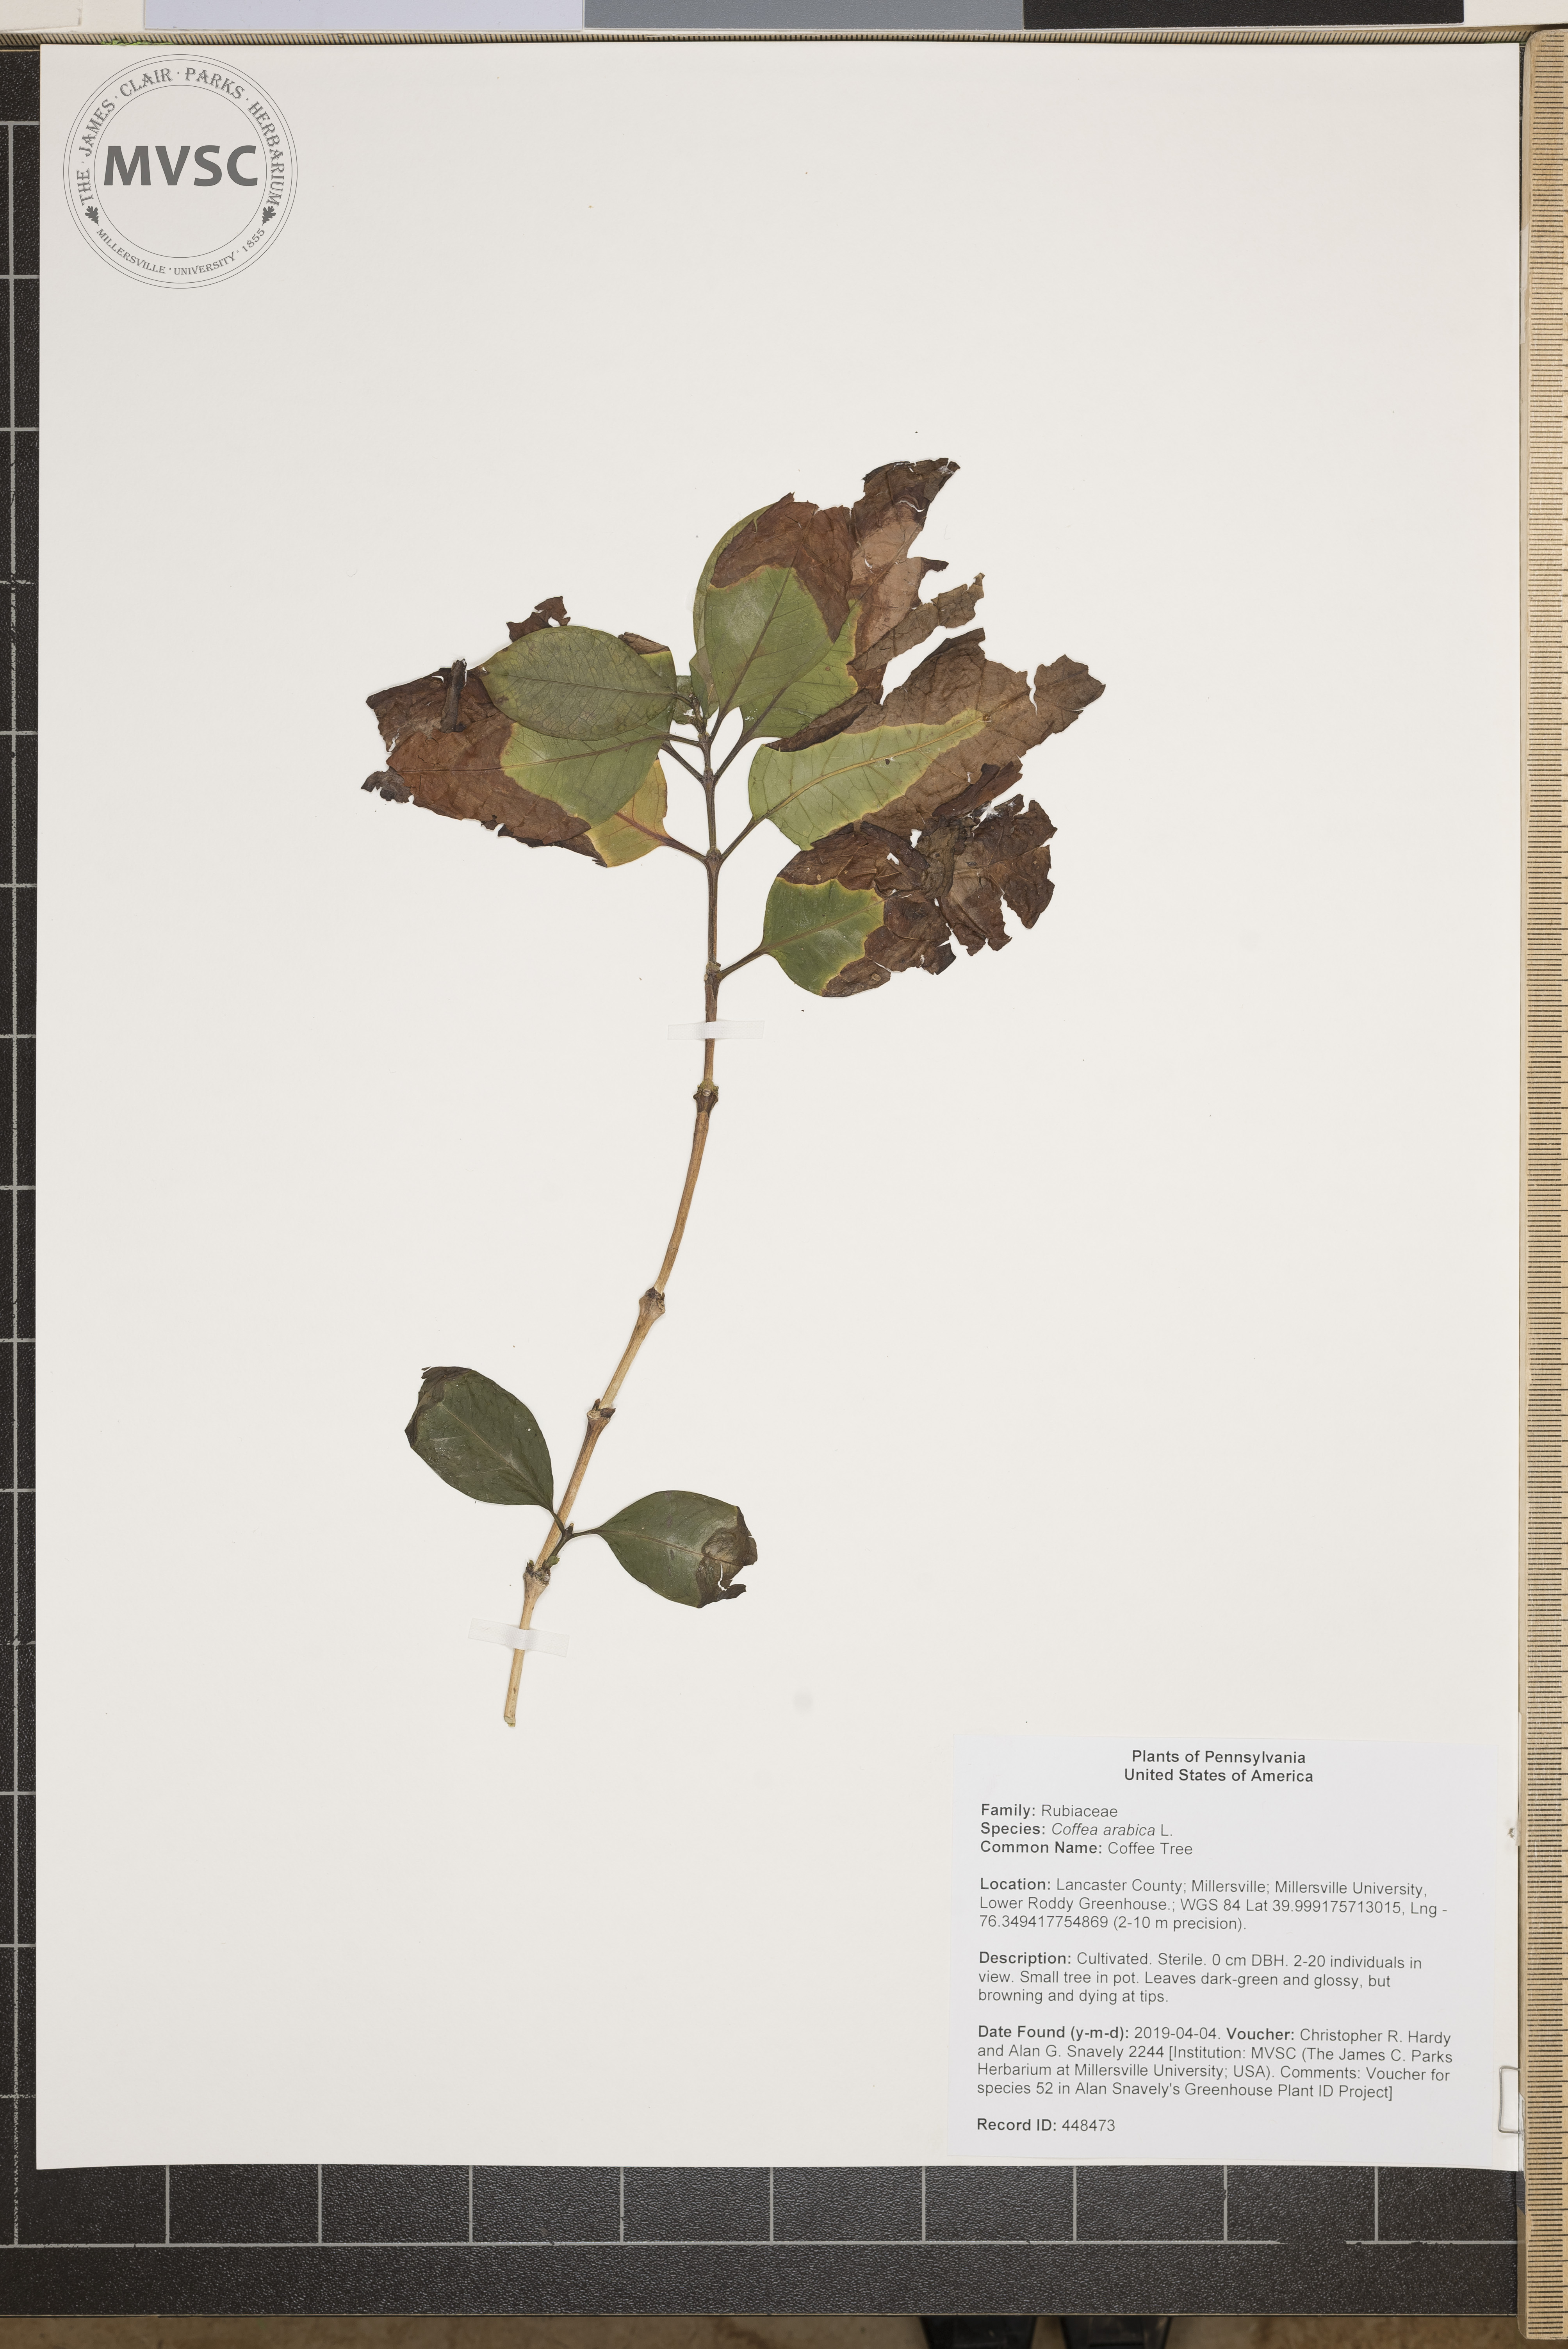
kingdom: Plantae
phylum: Tracheophyta
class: Magnoliopsida
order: Gentianales
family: Rubiaceae
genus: Coffea
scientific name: Coffea arabica
